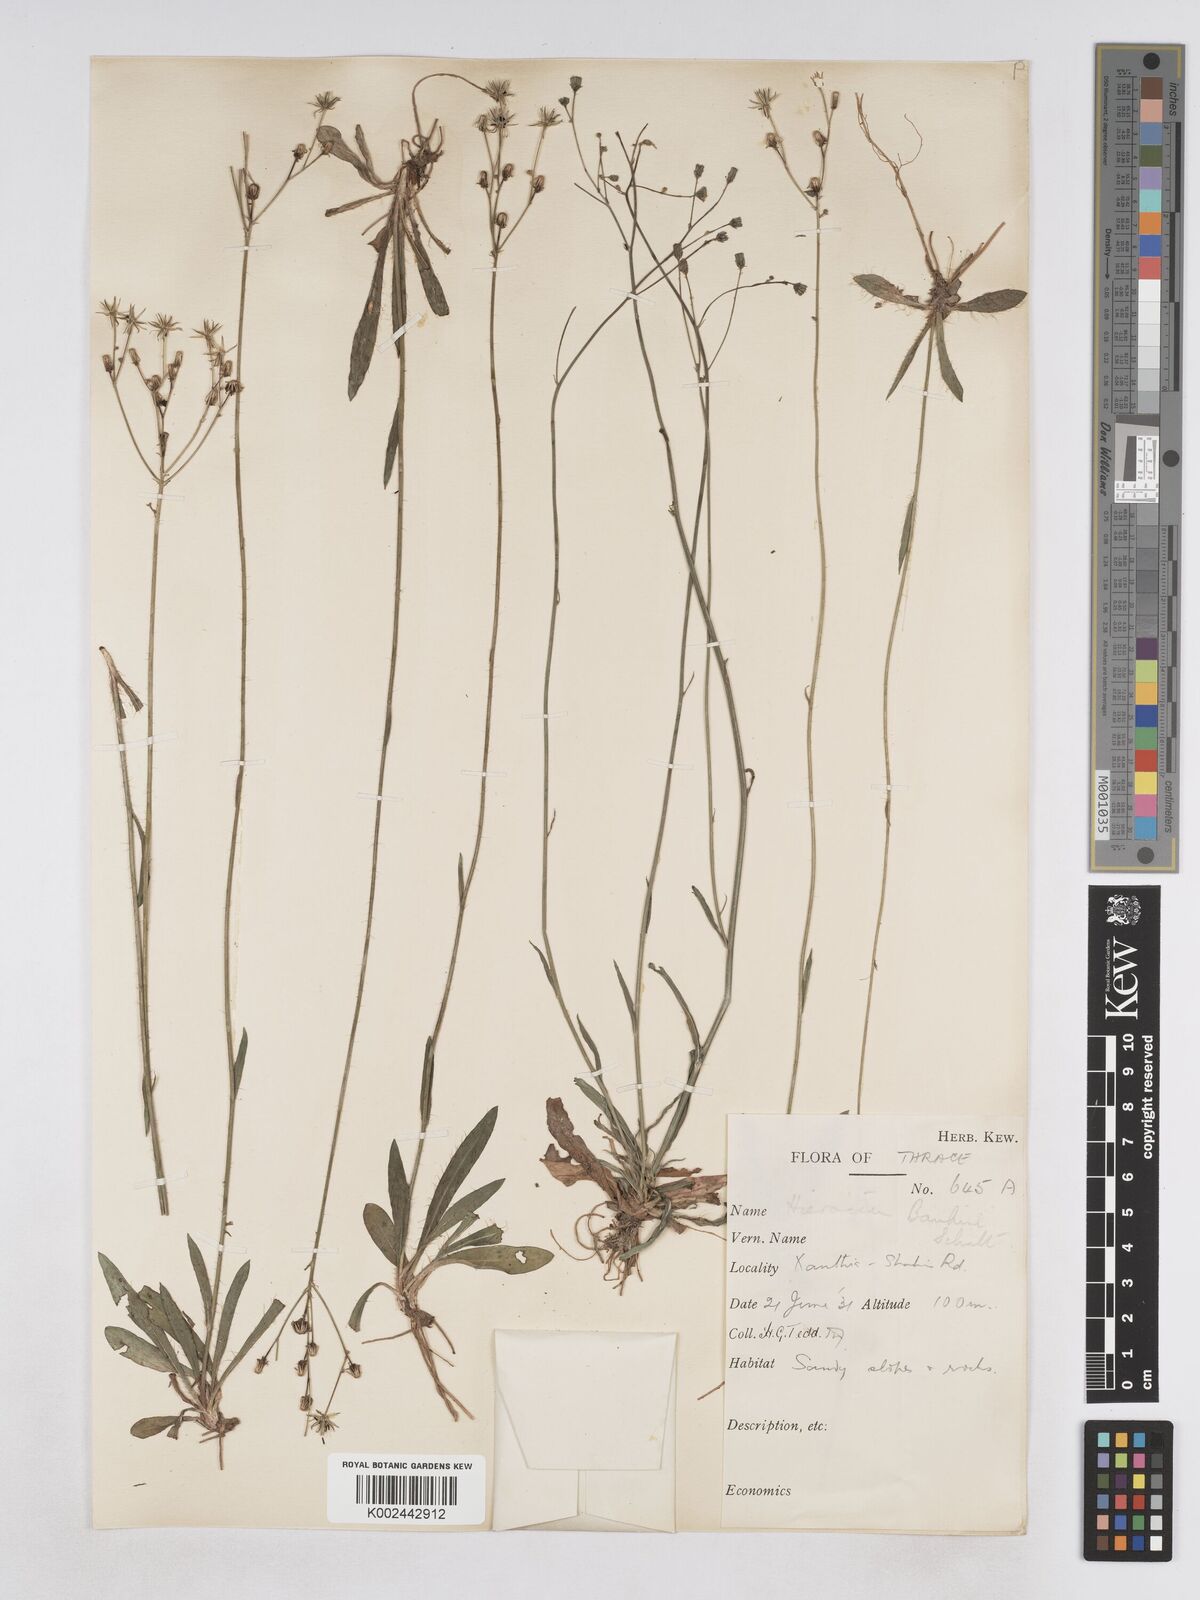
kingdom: Plantae
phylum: Tracheophyta
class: Magnoliopsida
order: Asterales
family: Asteraceae
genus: Pilosella
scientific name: Pilosella pavichii
